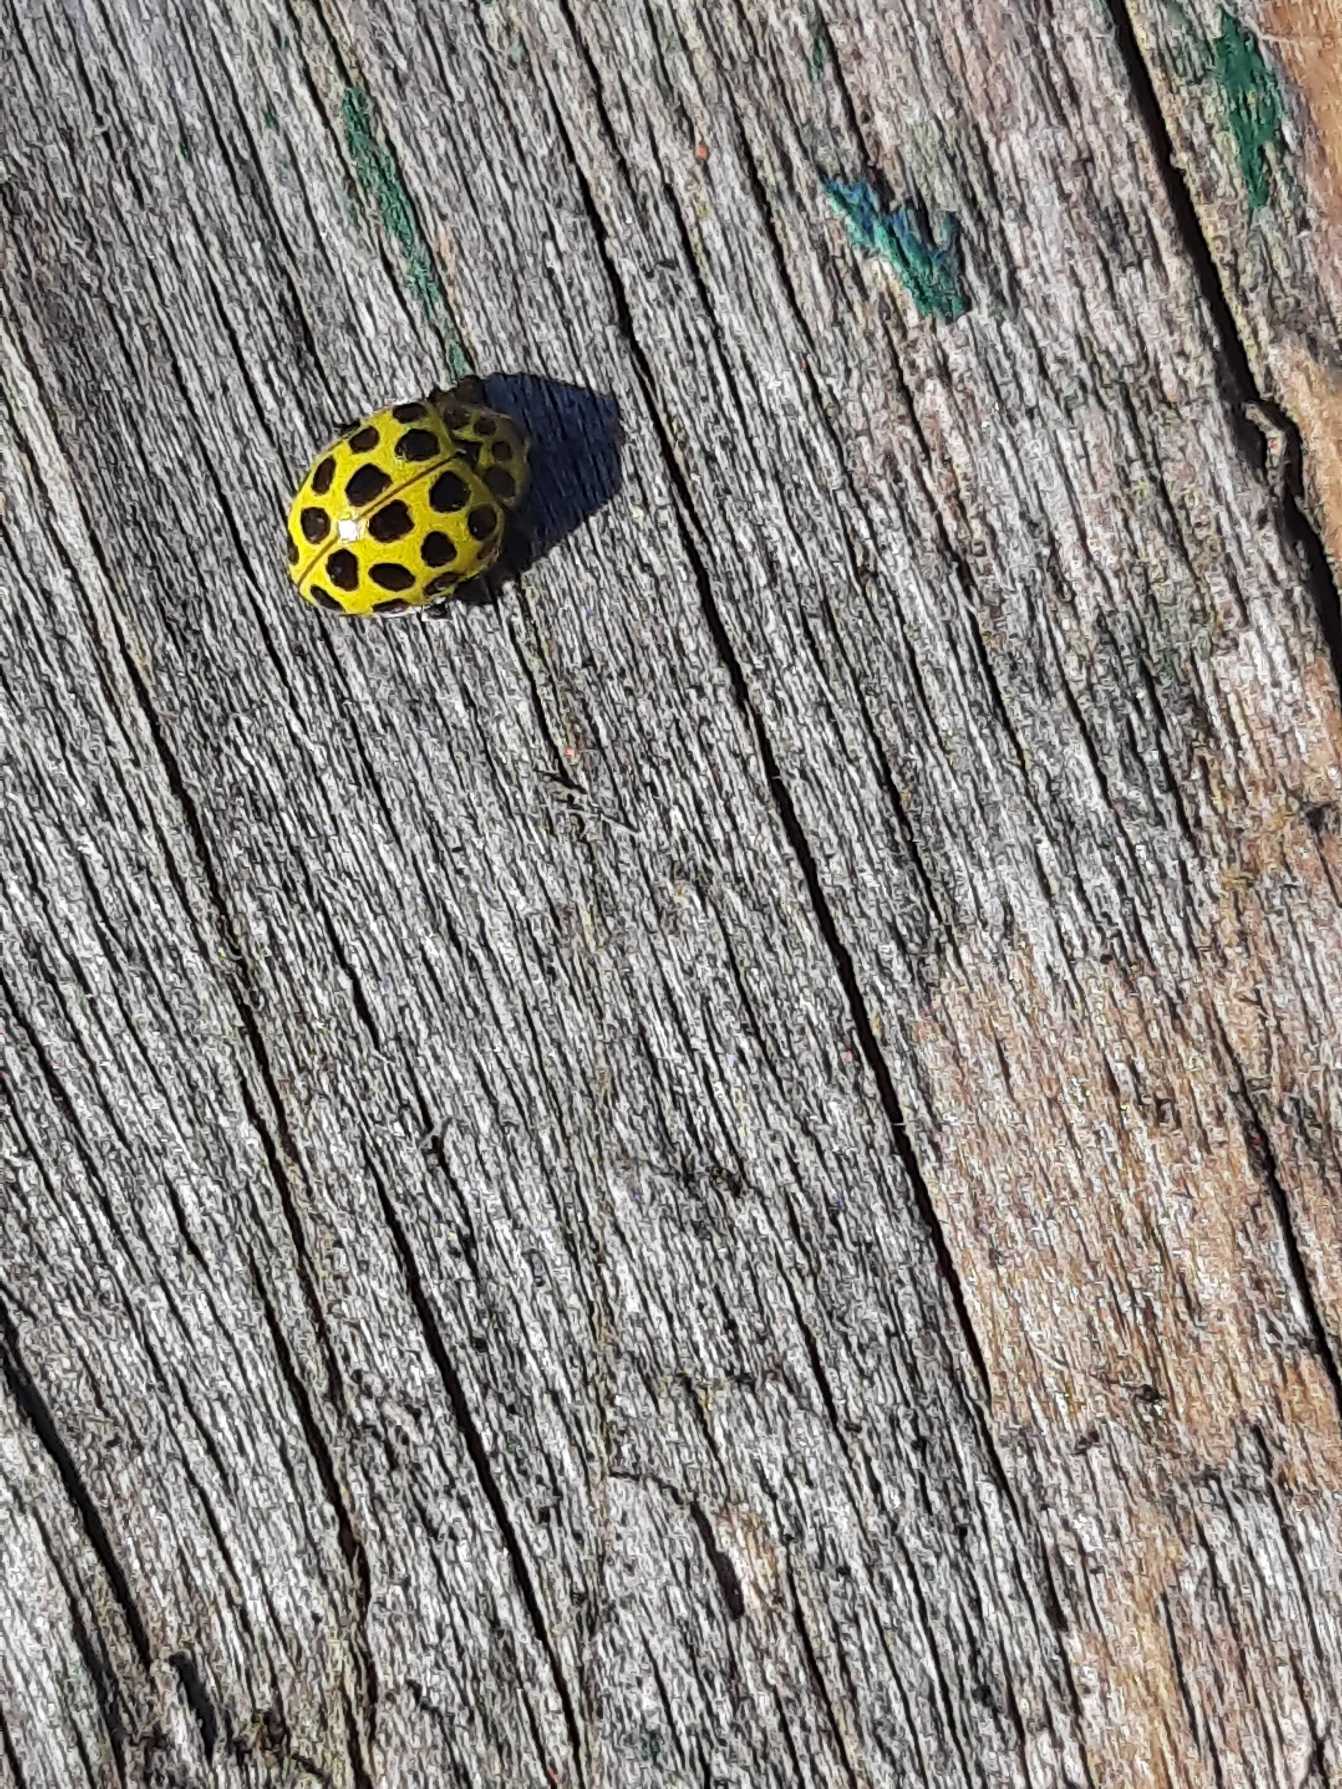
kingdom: Animalia
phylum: Arthropoda
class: Insecta
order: Coleoptera
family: Coccinellidae
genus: Psyllobora
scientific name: Psyllobora vigintiduopunctata
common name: Toogtyveplettet mariehøne
